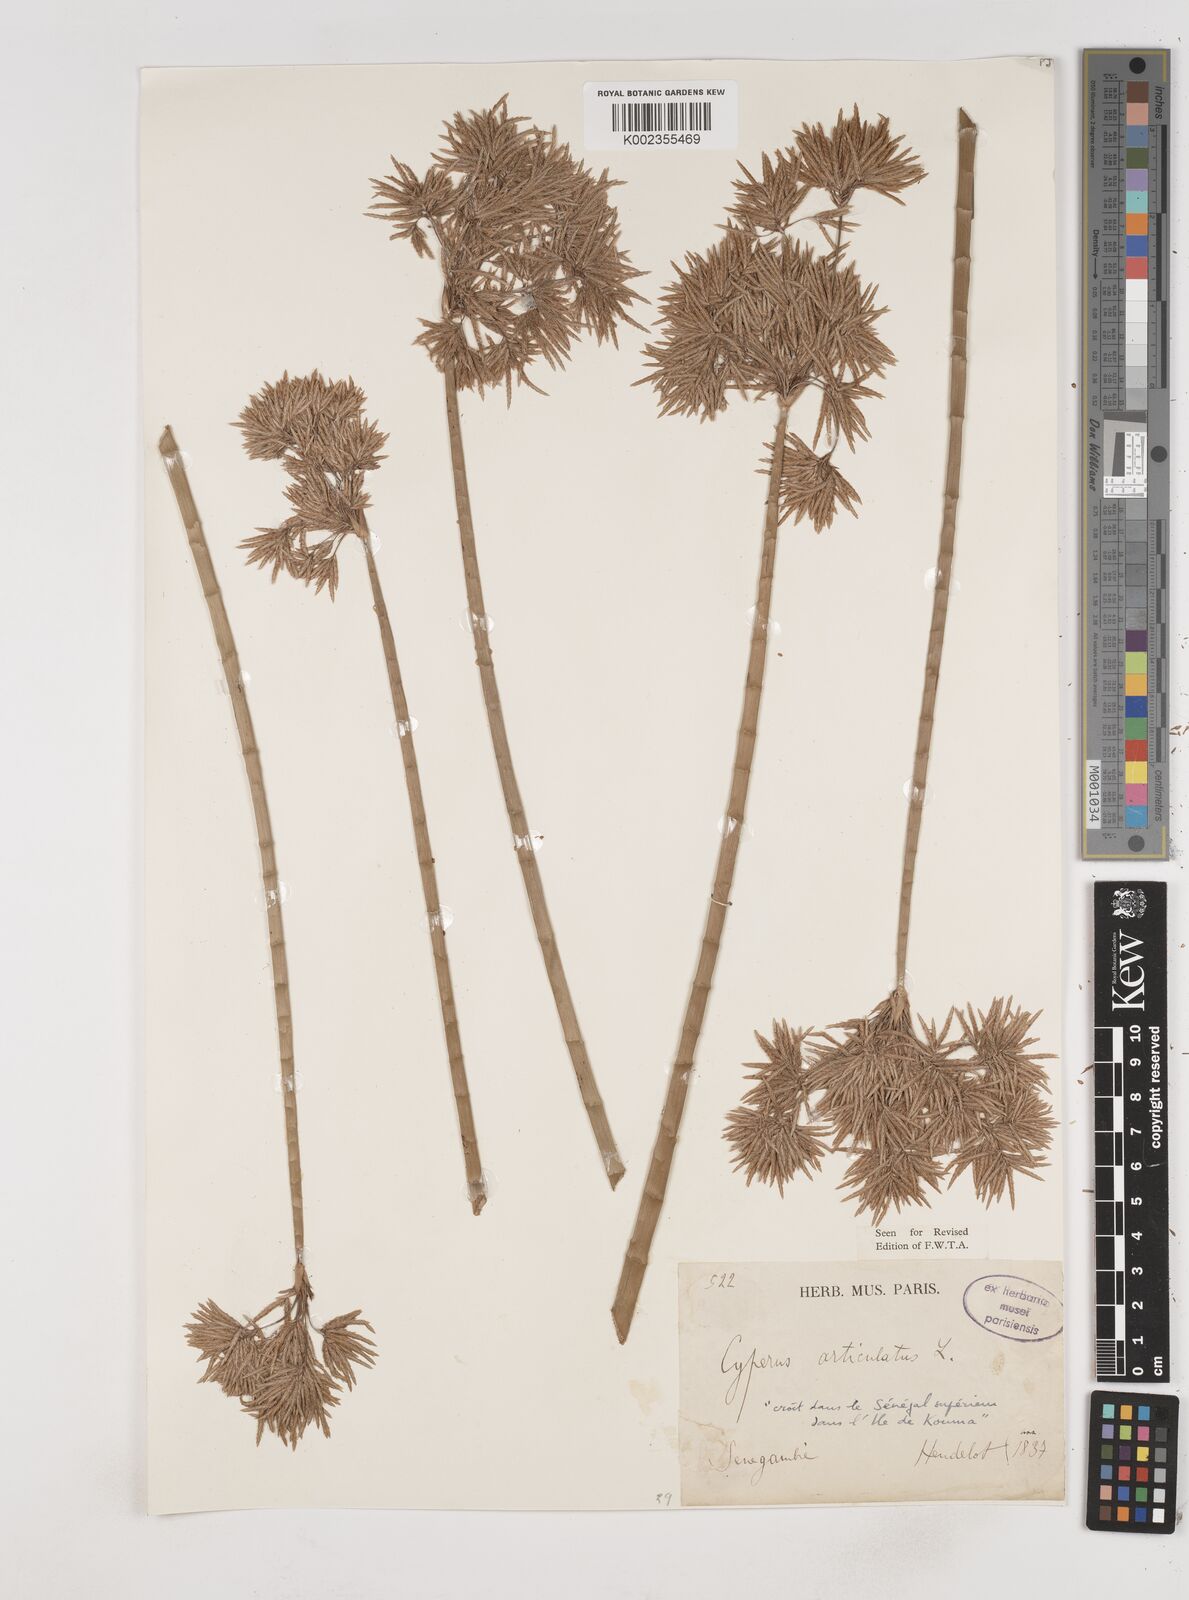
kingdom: Plantae
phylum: Tracheophyta
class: Liliopsida
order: Poales
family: Cyperaceae
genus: Cyperus
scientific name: Cyperus articulatus
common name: Jointed flatsedge
